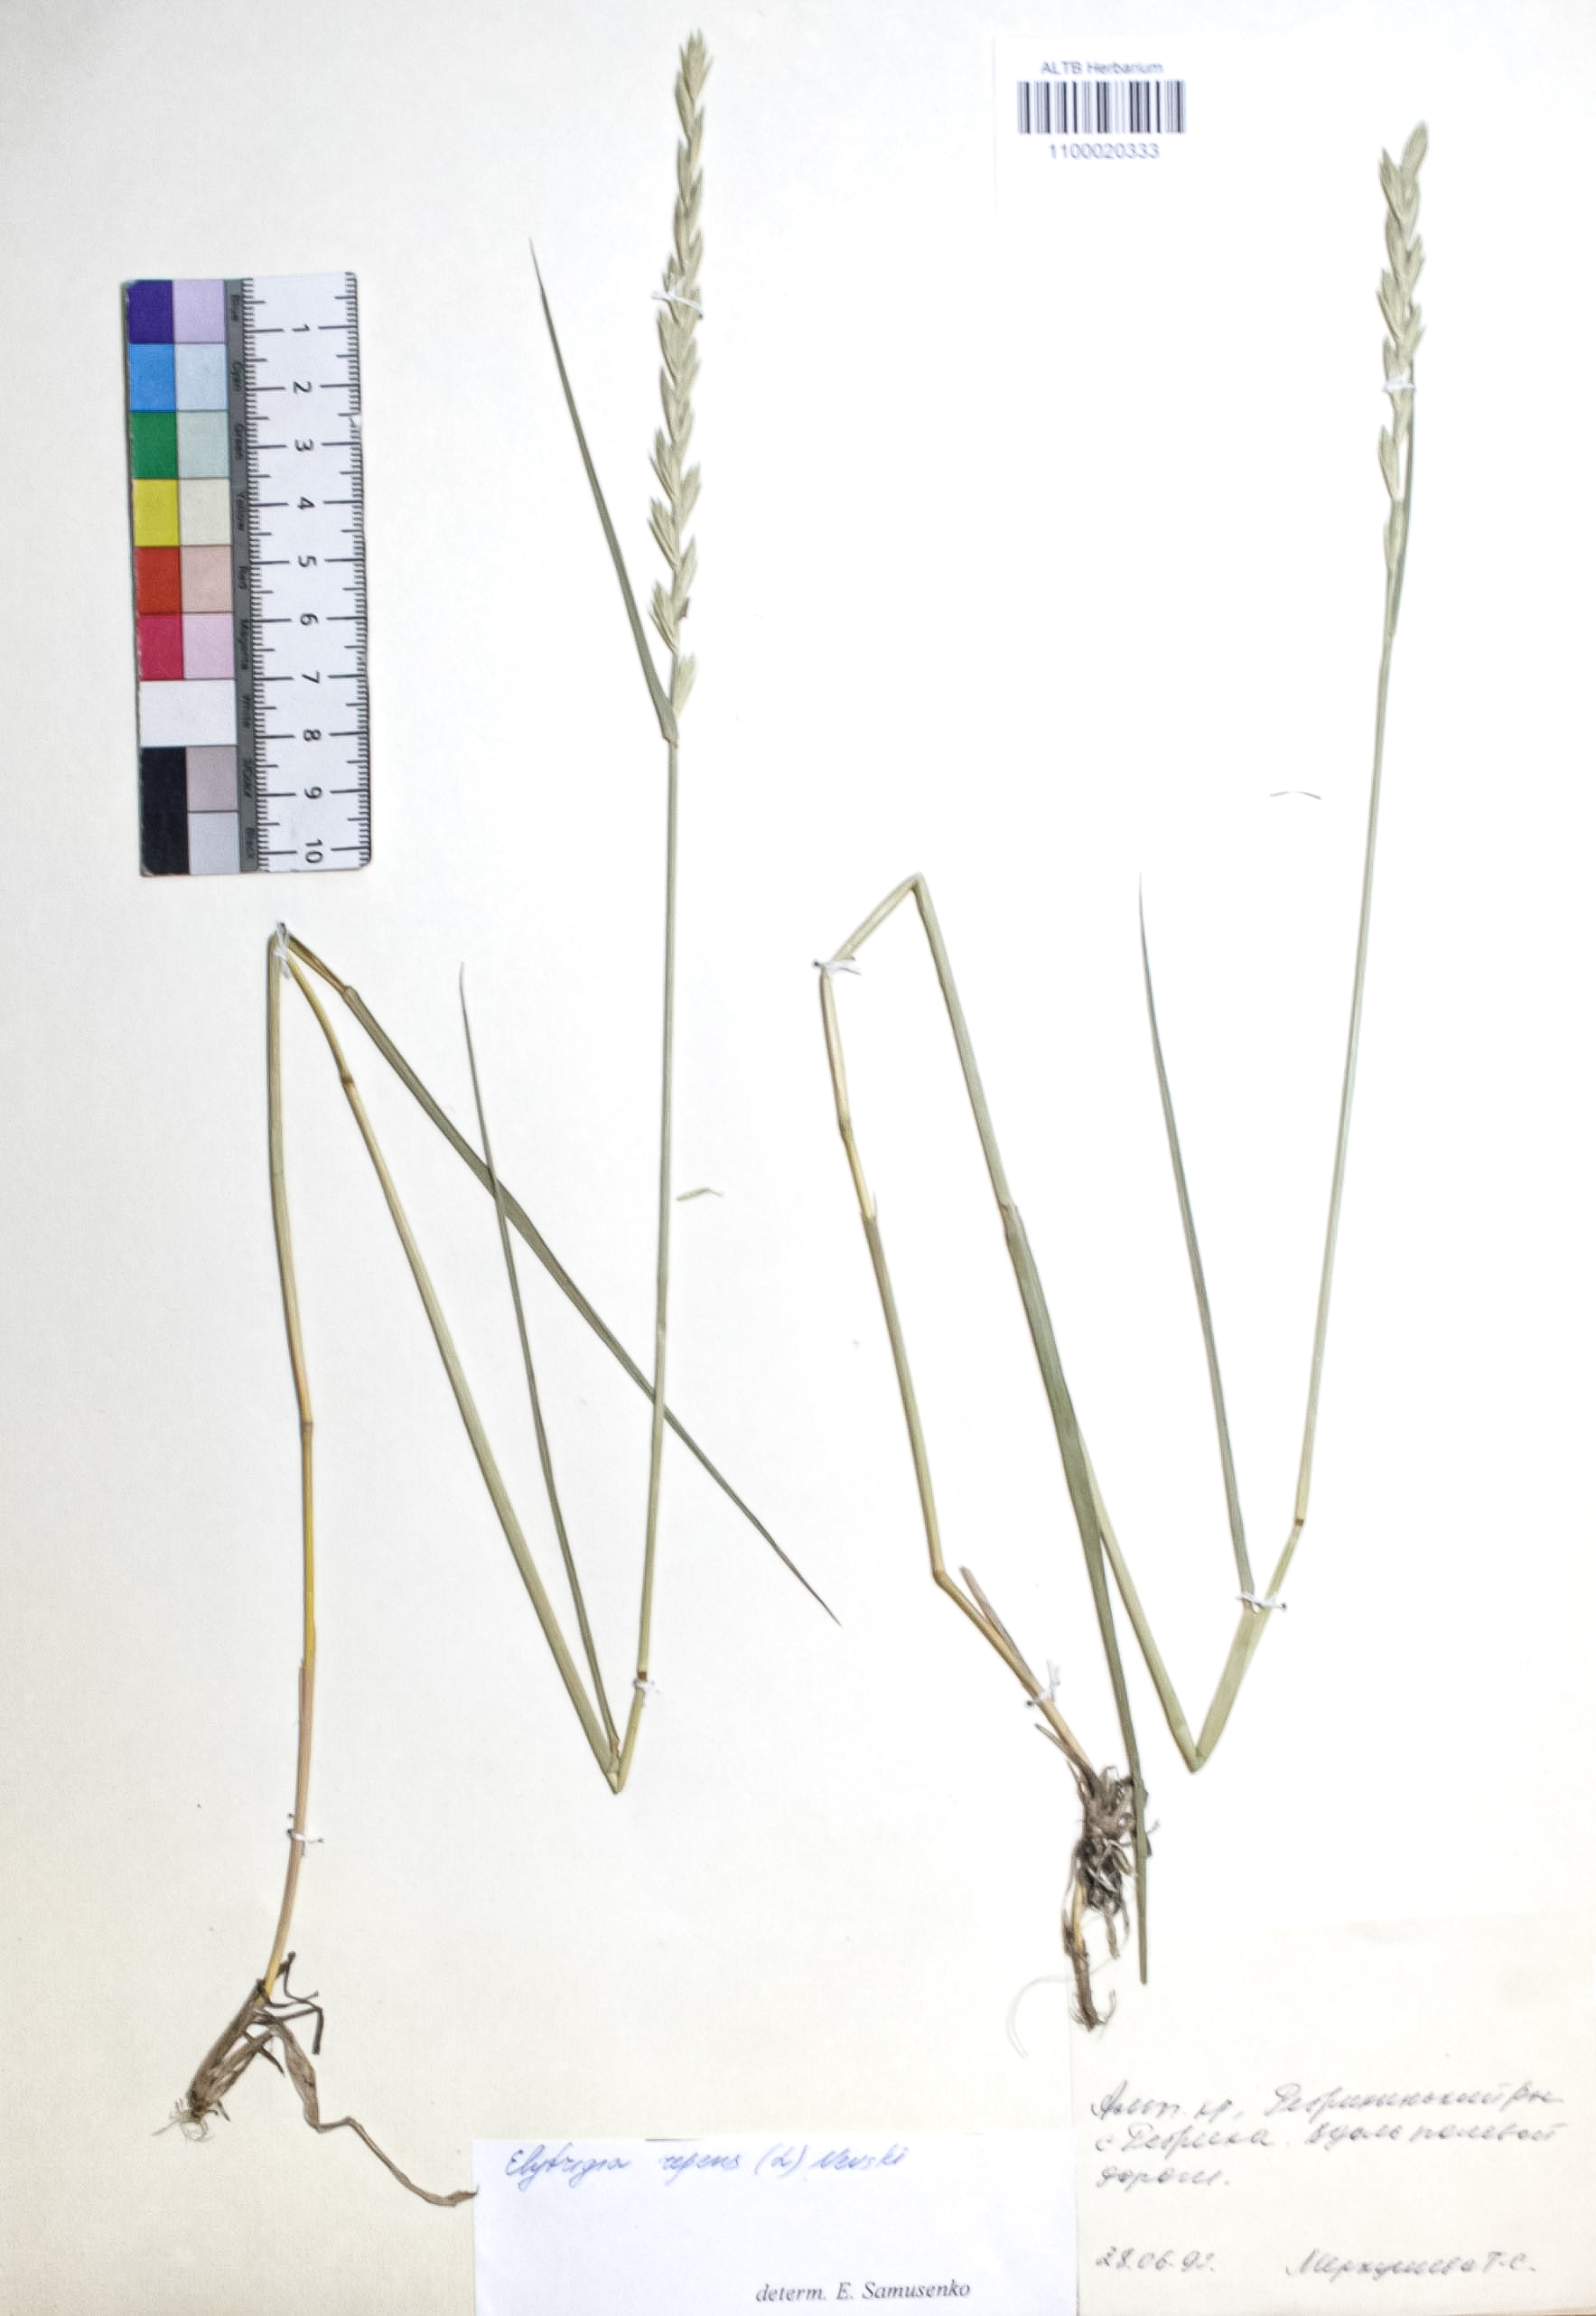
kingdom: Plantae
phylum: Tracheophyta
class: Liliopsida
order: Poales
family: Poaceae
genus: Elymus
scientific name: Elymus repens
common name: Quackgrass
